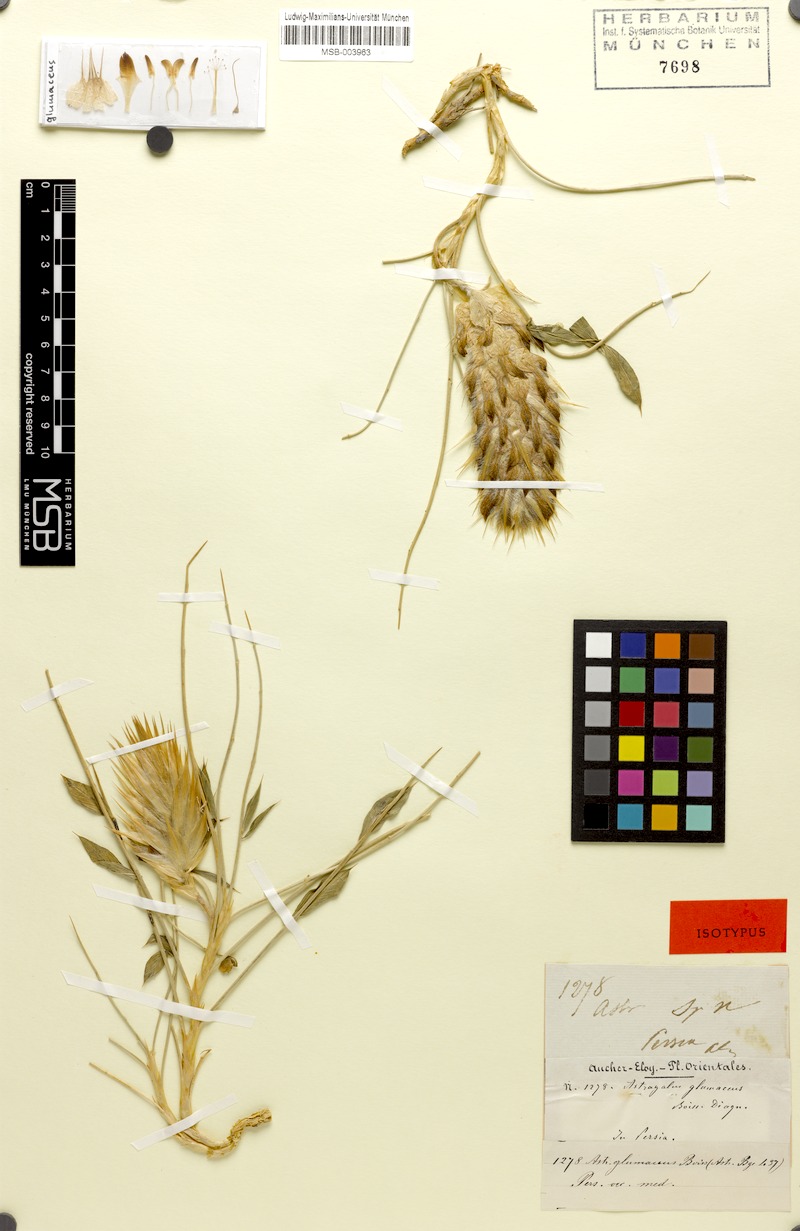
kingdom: Plantae
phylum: Tracheophyta
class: Magnoliopsida
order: Fabales
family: Fabaceae
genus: Astragalus
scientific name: Astragalus glumaceus
